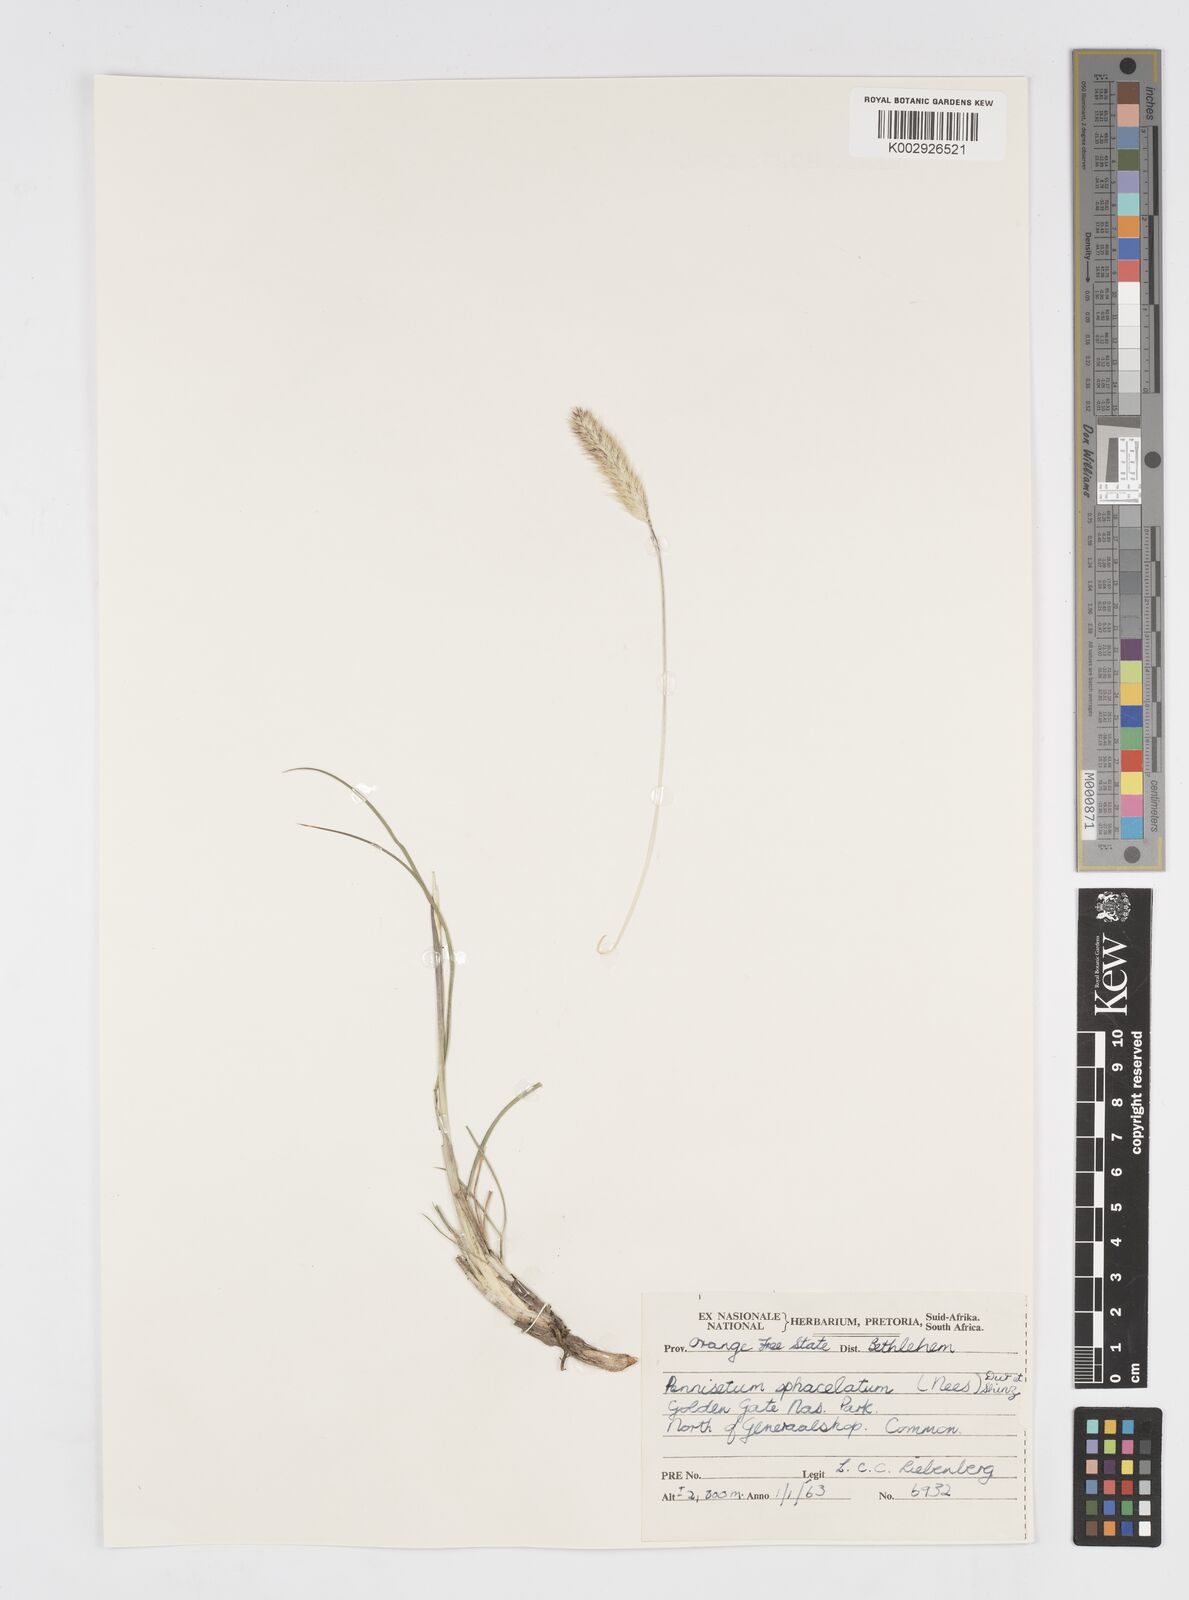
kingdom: Plantae
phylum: Tracheophyta
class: Liliopsida
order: Poales
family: Poaceae
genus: Cenchrus
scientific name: Cenchrus sphacelatus
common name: Bulgras
